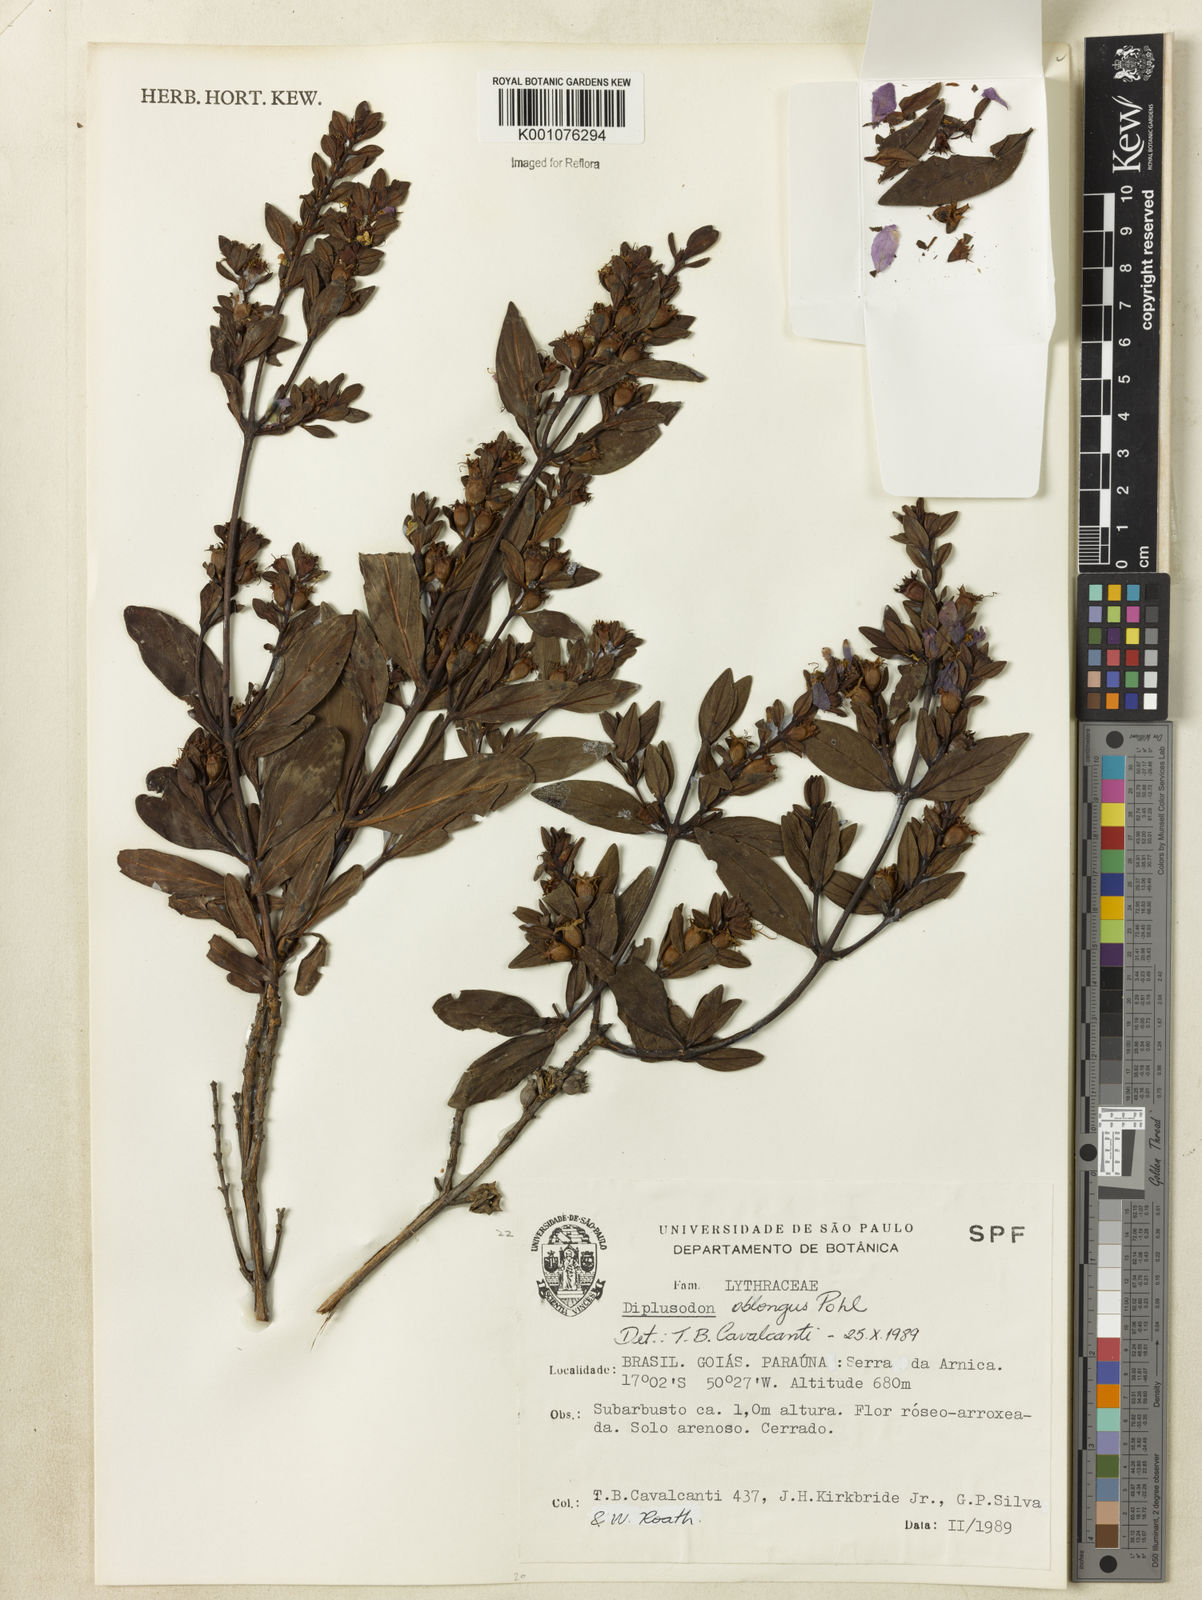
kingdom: Plantae
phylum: Tracheophyta
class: Magnoliopsida
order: Myrtales
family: Lythraceae
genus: Diplusodon
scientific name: Diplusodon oblongus
